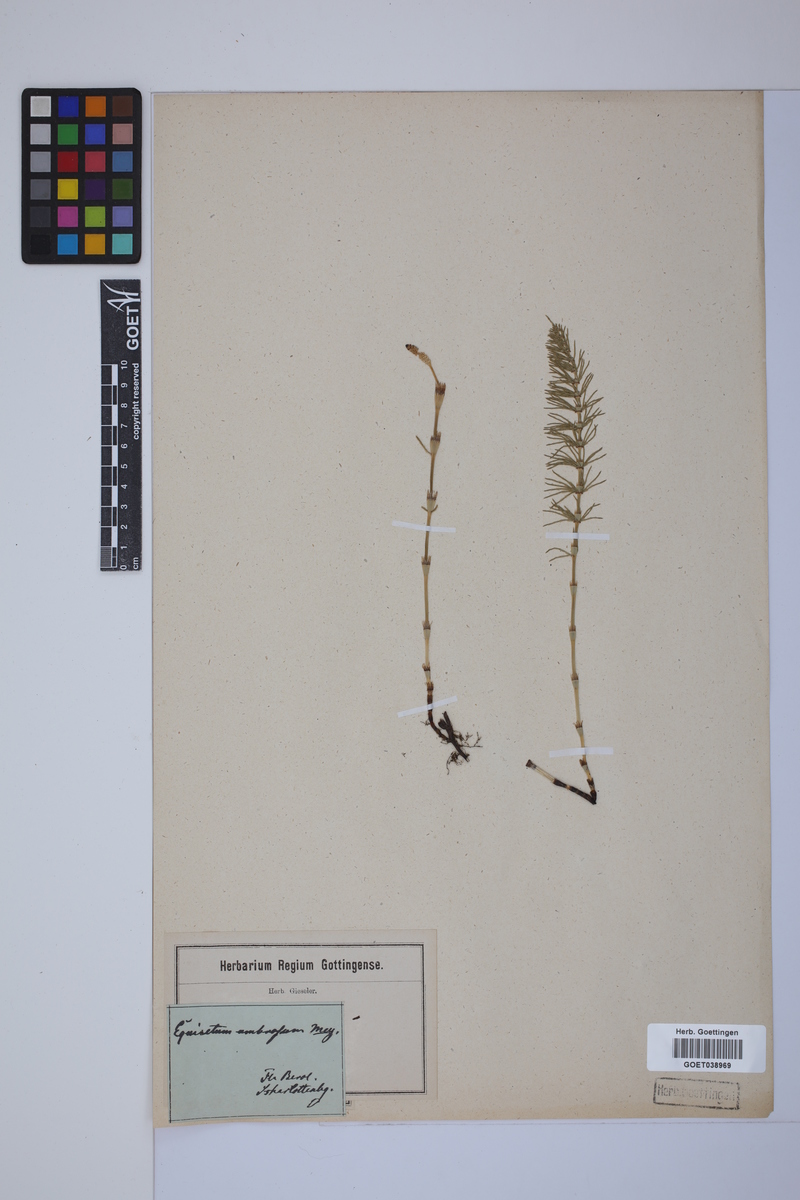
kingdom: Plantae
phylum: Tracheophyta
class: Polypodiopsida
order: Equisetales
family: Equisetaceae
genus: Equisetum
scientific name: Equisetum pratense
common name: Meadow horsetail
